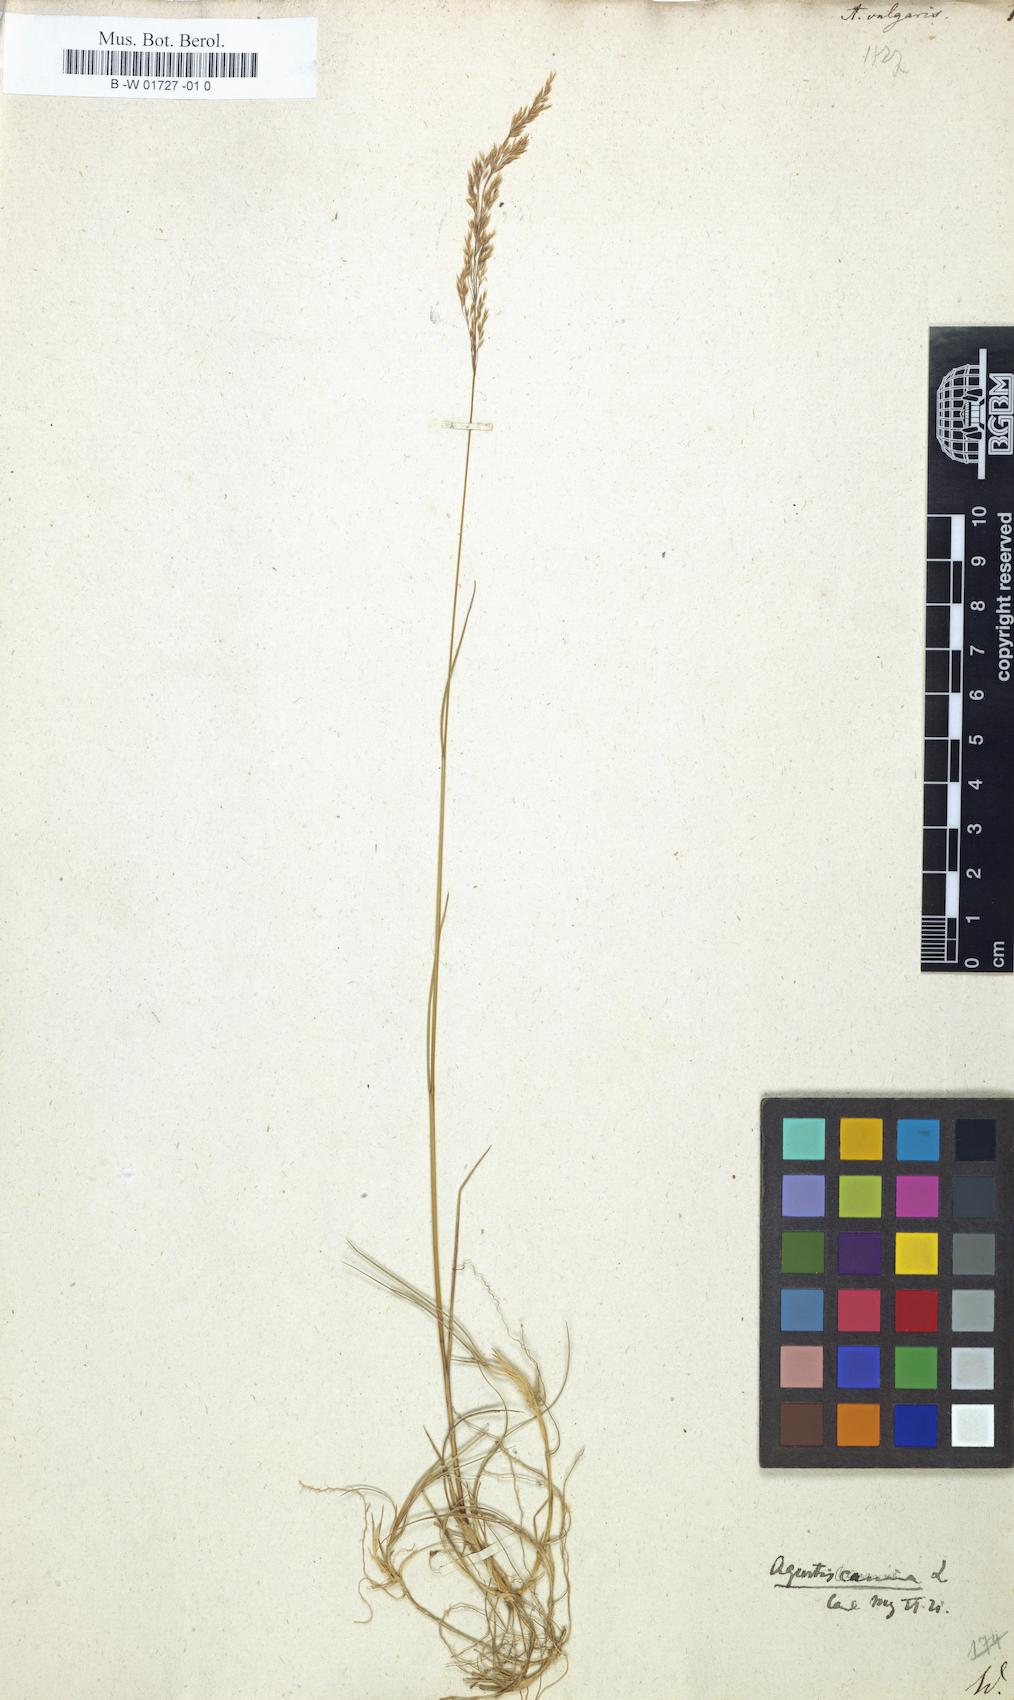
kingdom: Plantae
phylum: Tracheophyta
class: Liliopsida
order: Poales
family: Poaceae
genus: Agrostis
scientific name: Agrostis capillaris
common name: Colonial bentgrass
